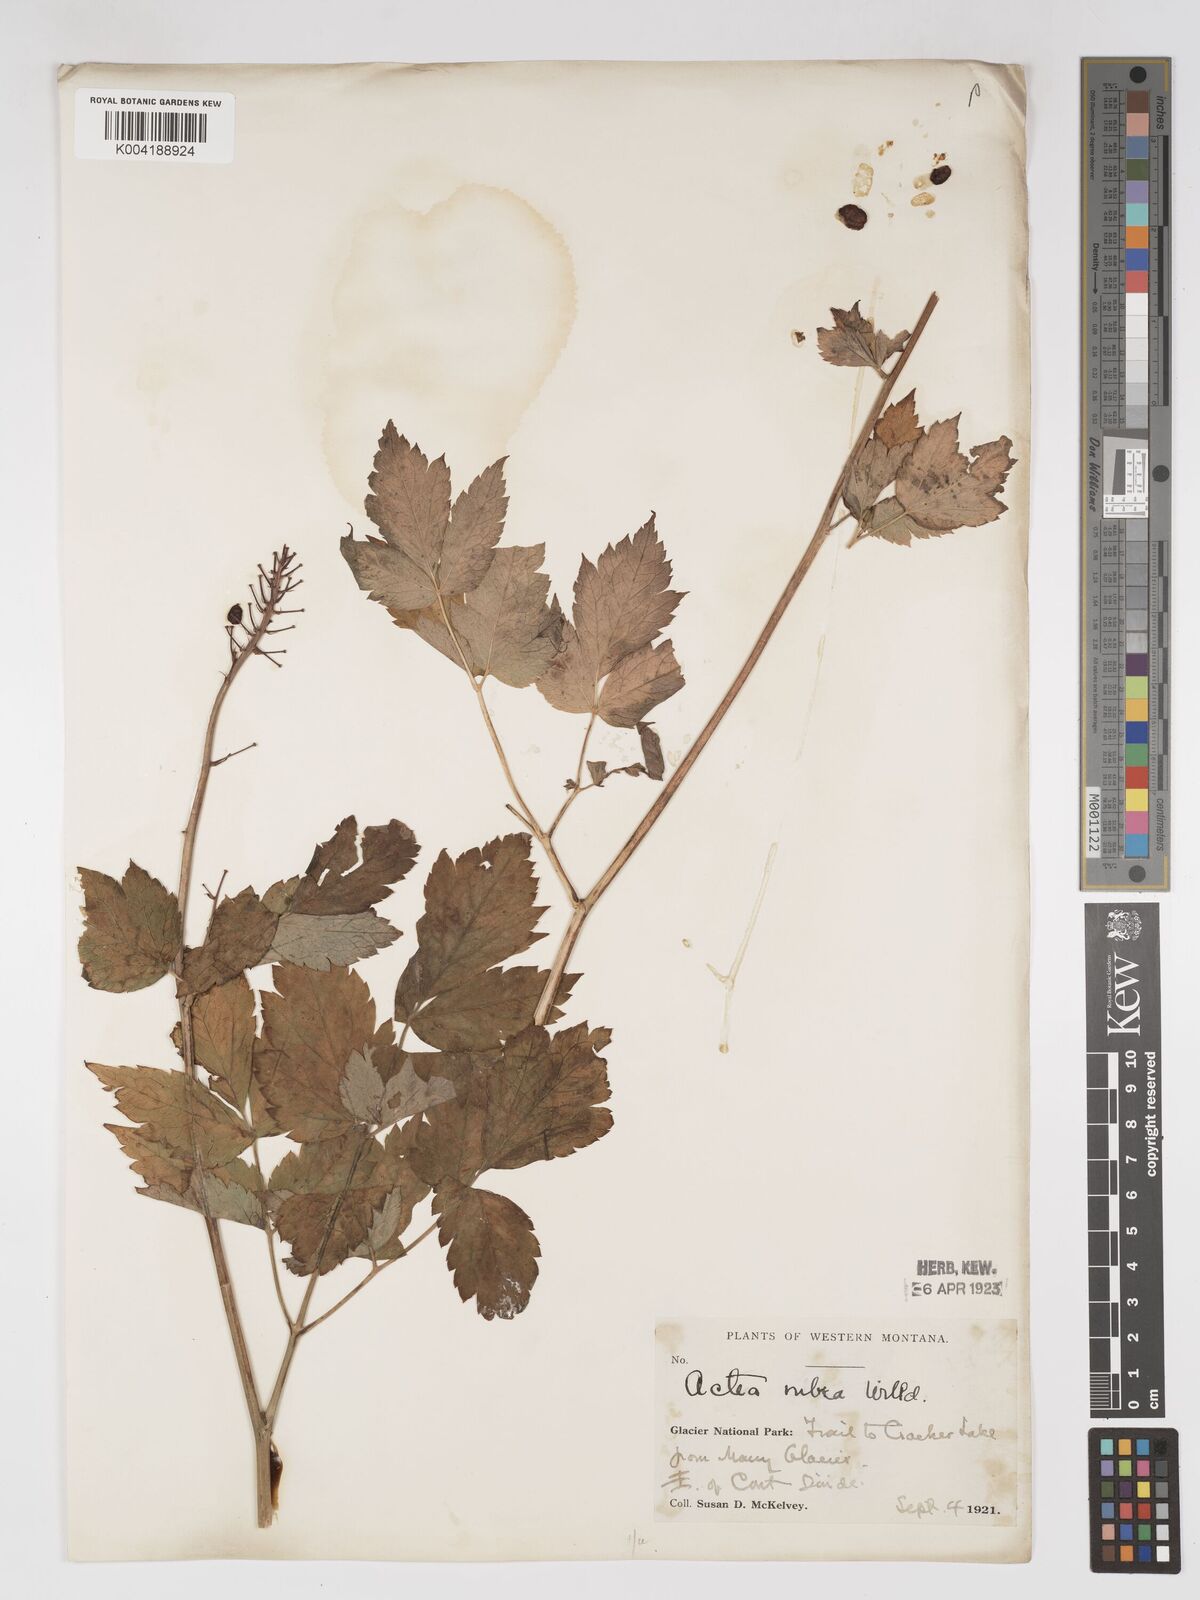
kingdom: Plantae
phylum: Tracheophyta
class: Magnoliopsida
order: Ranunculales
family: Ranunculaceae
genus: Actaea
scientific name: Actaea rubra
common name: Red baneberry
